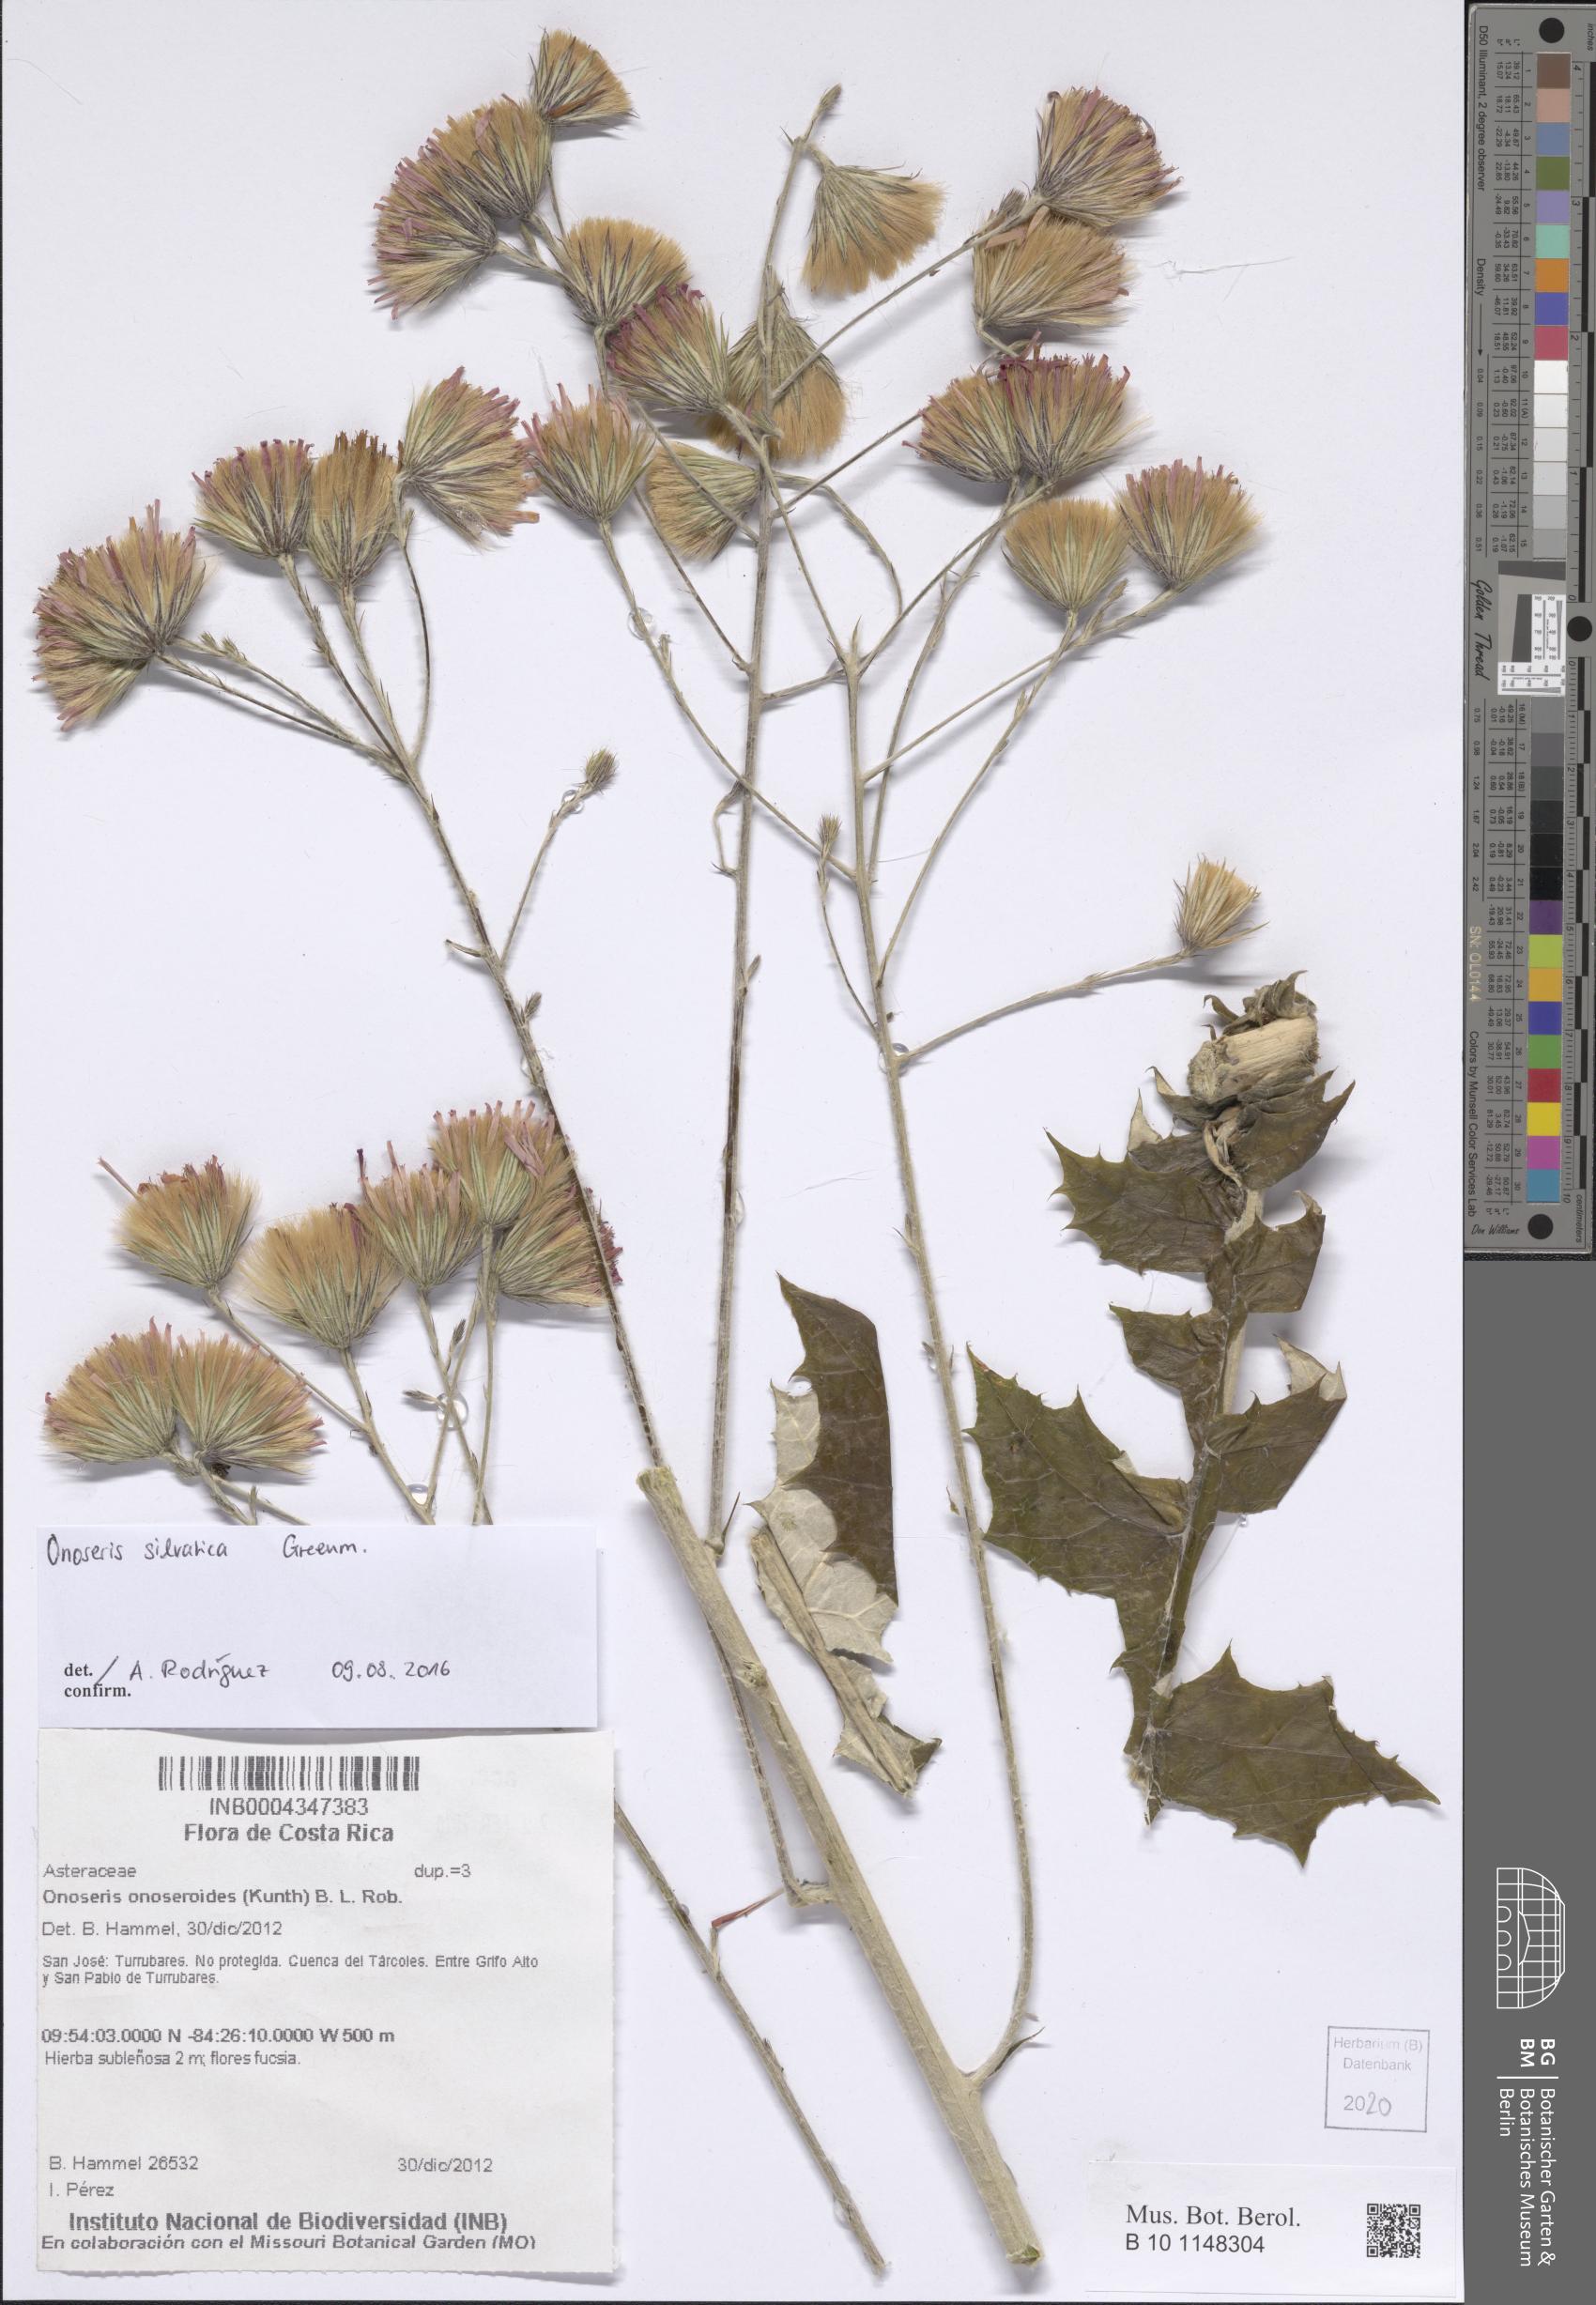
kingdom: Plantae
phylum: Tracheophyta
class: Magnoliopsida
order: Asterales
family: Asteraceae
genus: Onoseris
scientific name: Onoseris onoseroides
